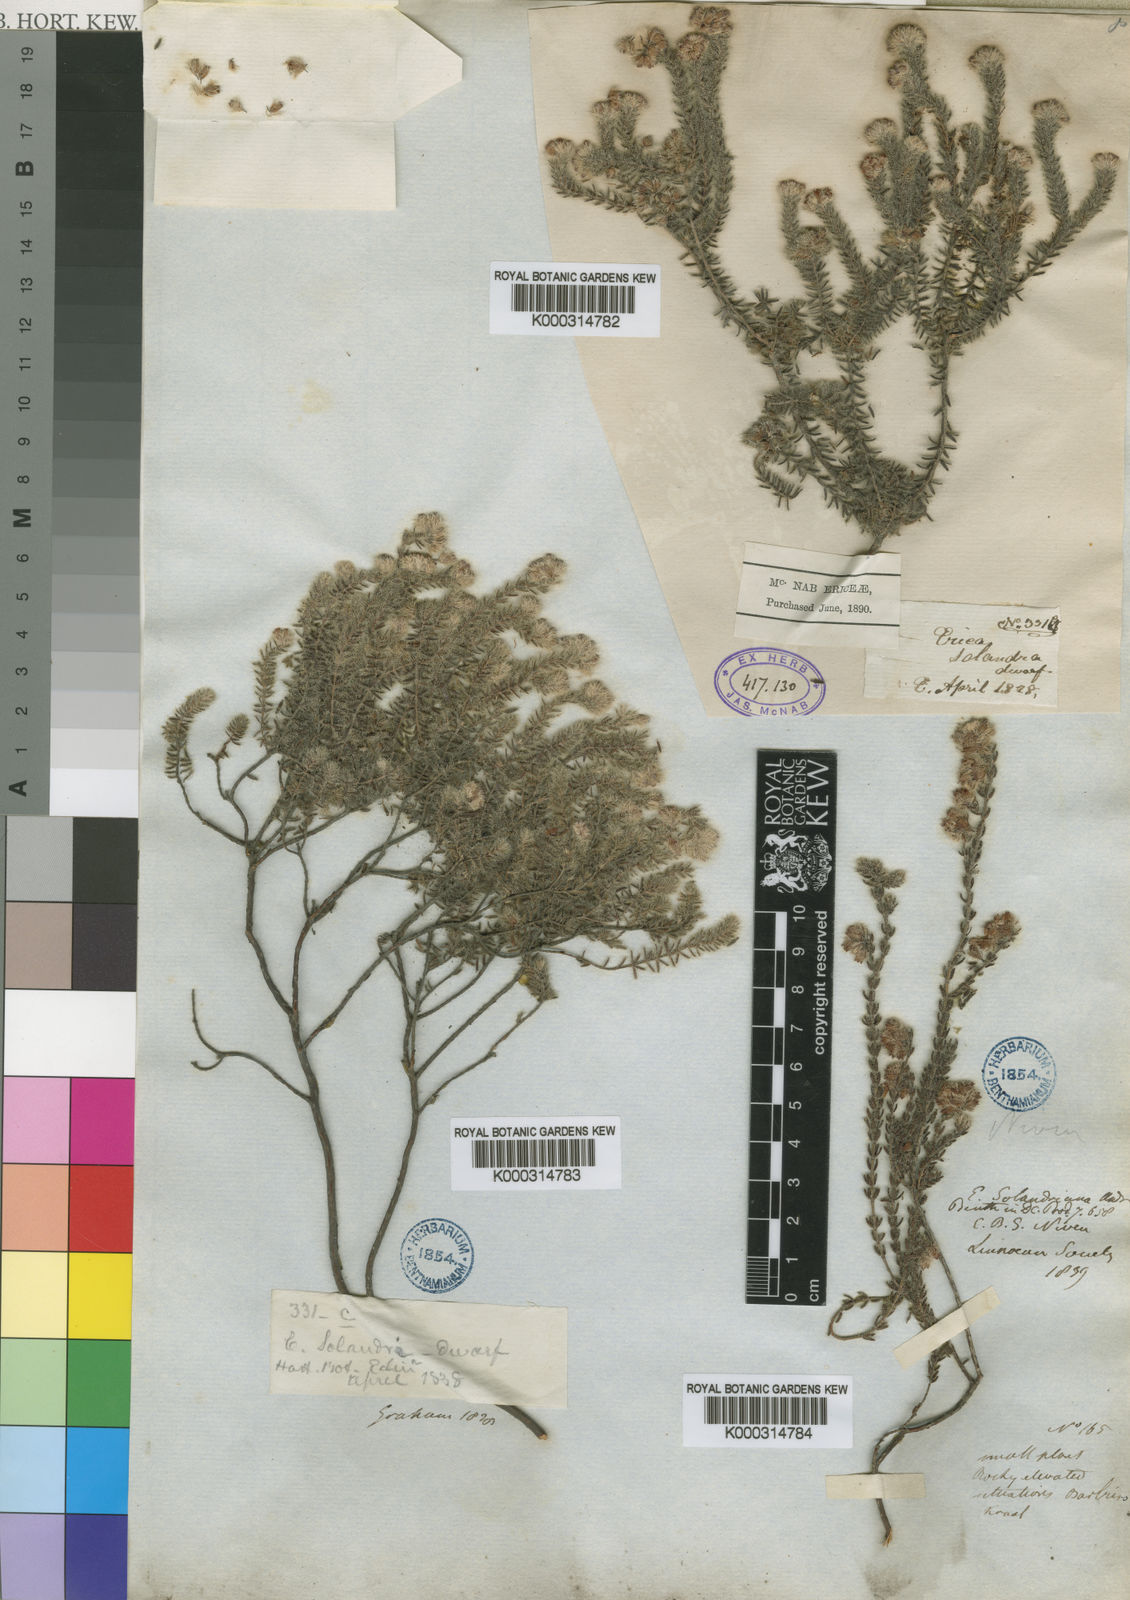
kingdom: Plantae
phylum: Tracheophyta
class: Magnoliopsida
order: Ericales
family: Ericaceae
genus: Erica
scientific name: Erica solandra
